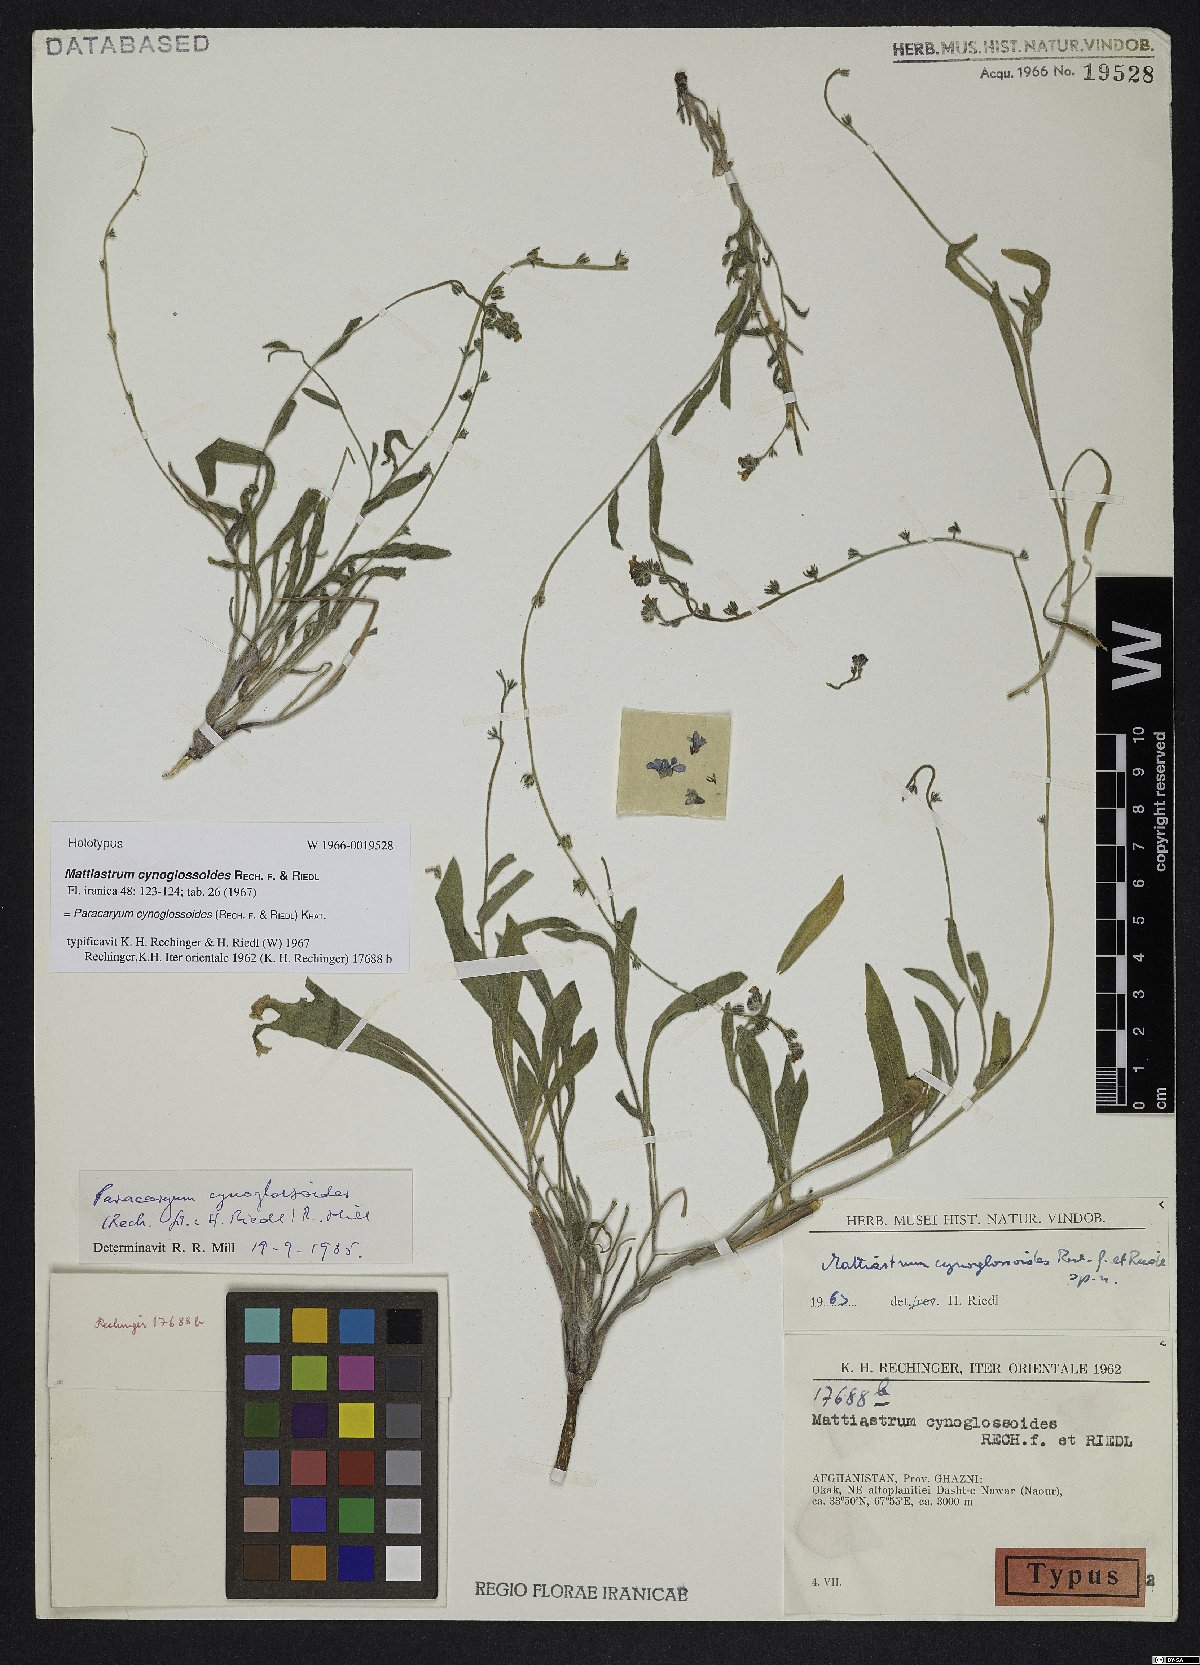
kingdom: Plantae
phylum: Tracheophyta
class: Magnoliopsida
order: Boraginales
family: Boraginaceae
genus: Paracaryum
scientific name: Paracaryum cynoglossoides
